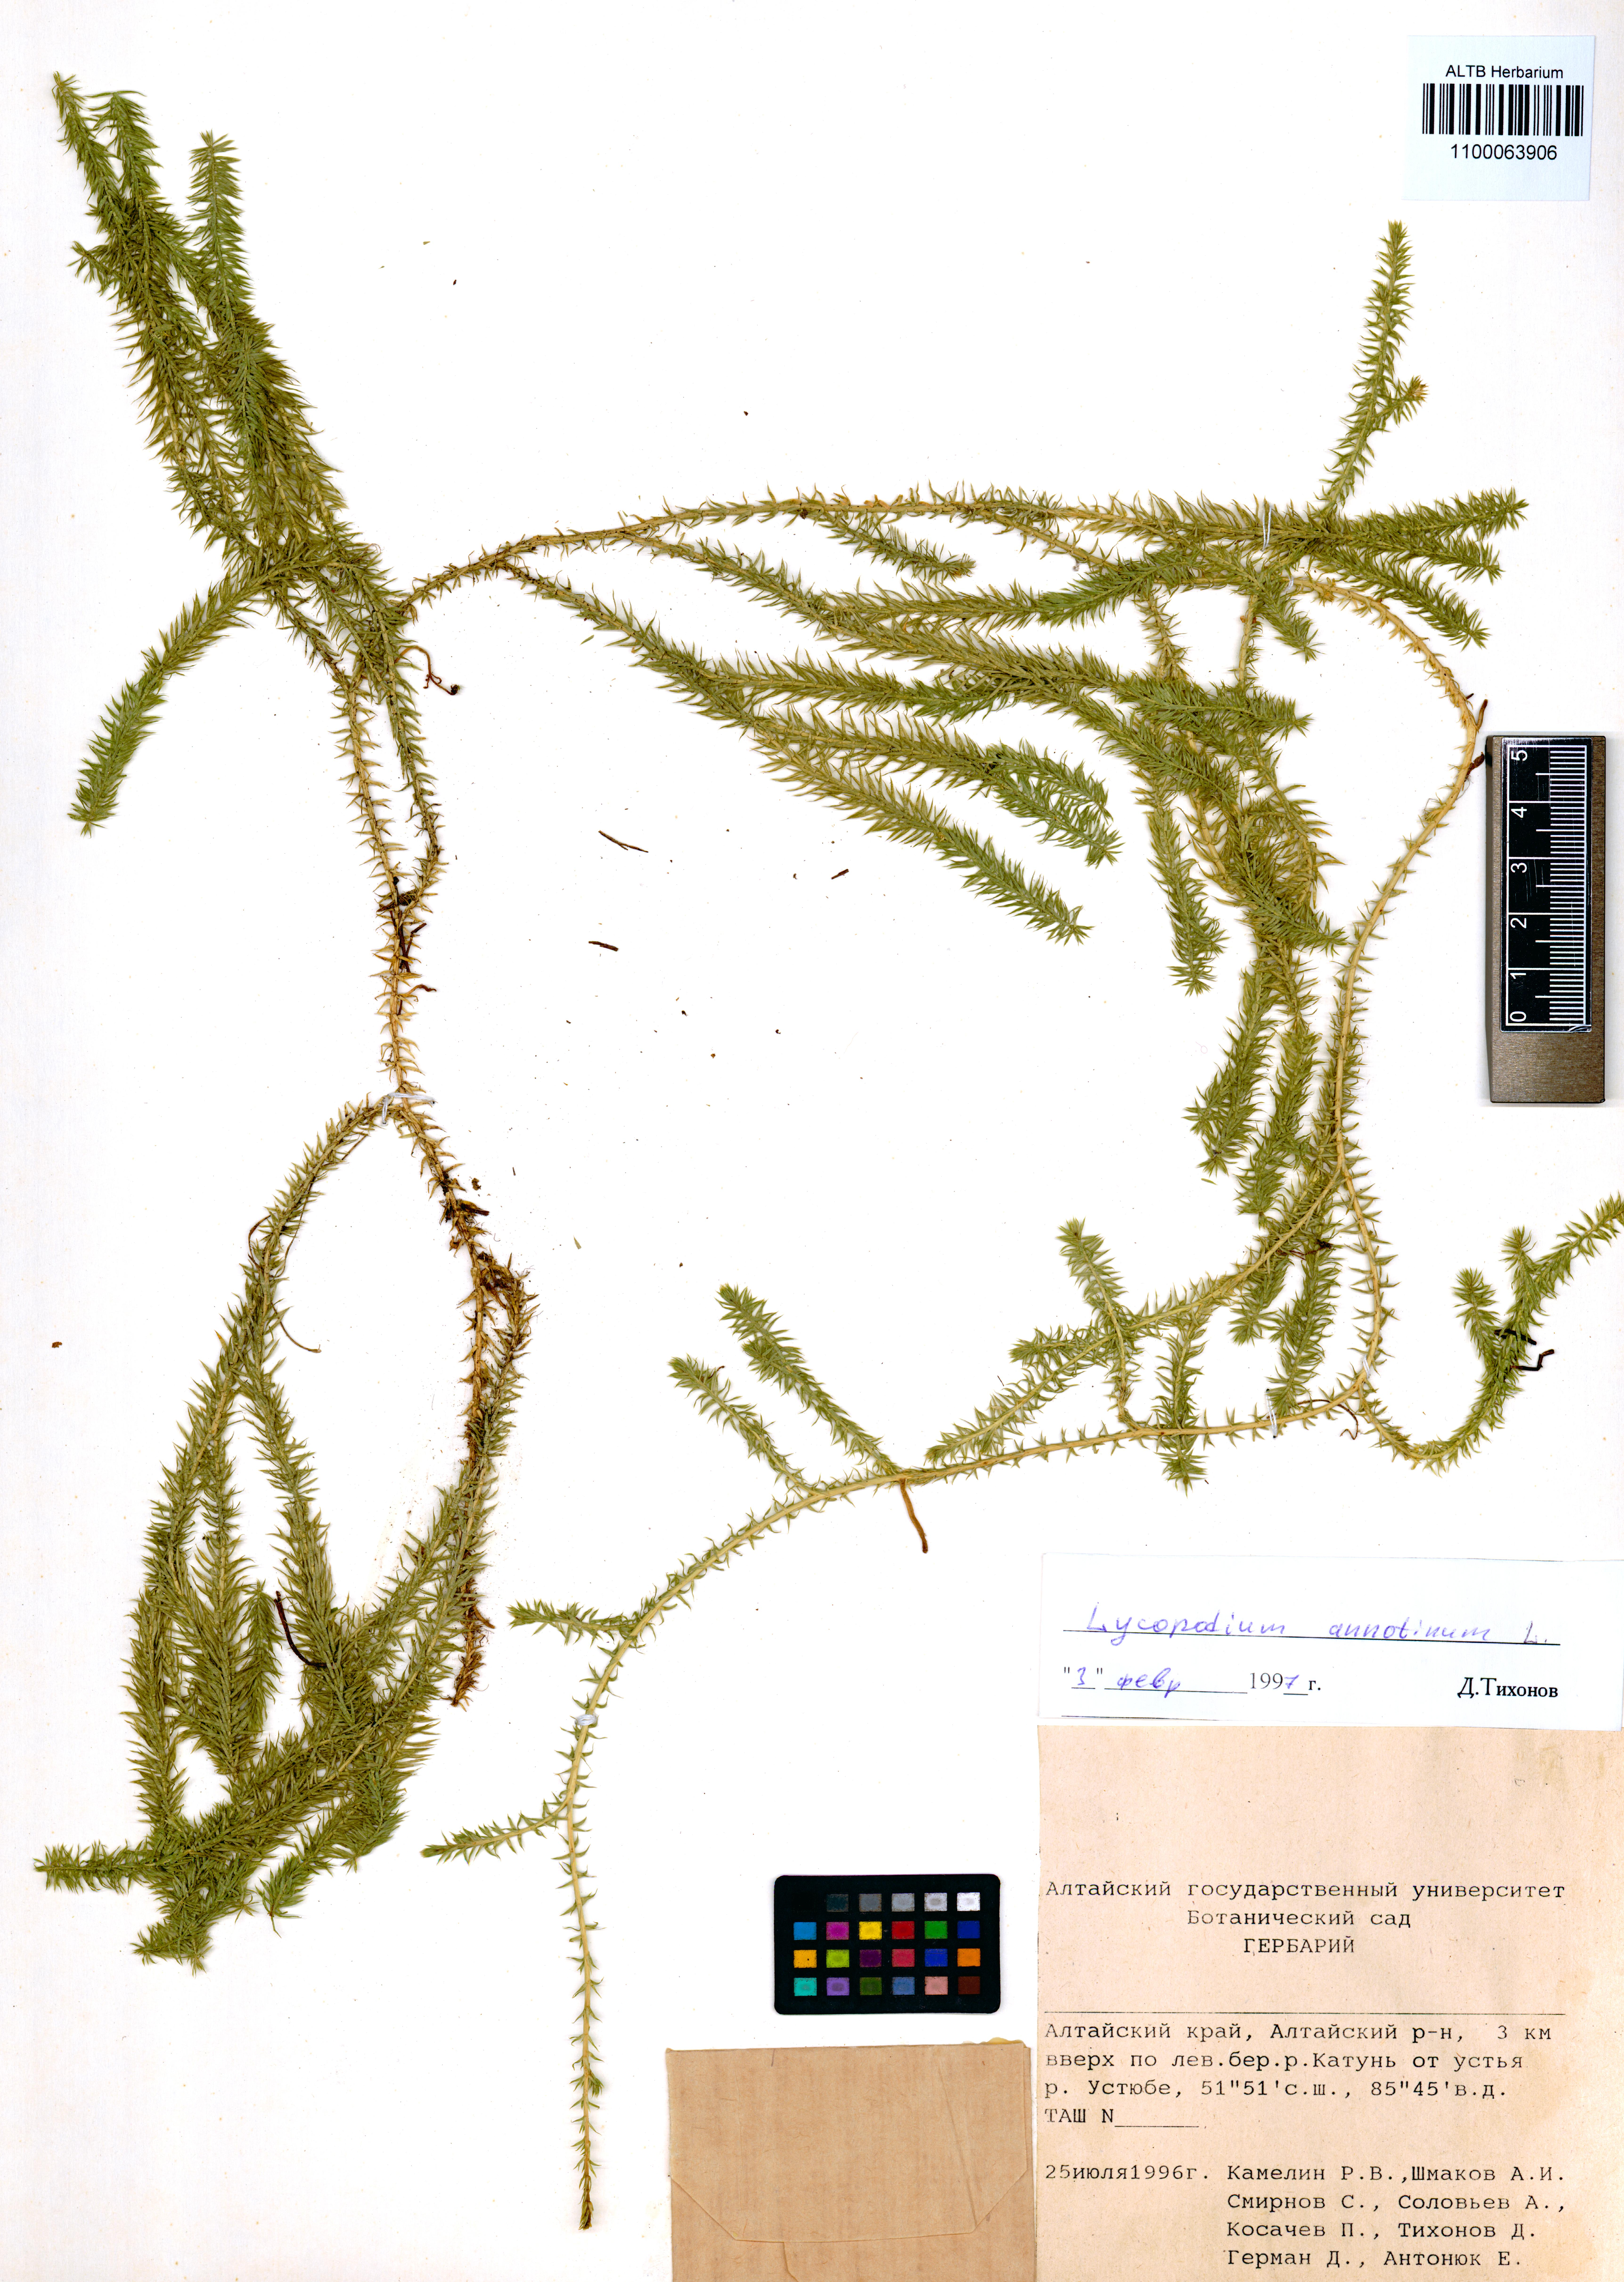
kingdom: Plantae
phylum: Tracheophyta
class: Lycopodiopsida
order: Lycopodiales
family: Lycopodiaceae
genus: Spinulum
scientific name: Spinulum annotinum
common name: Interrupted club-moss
